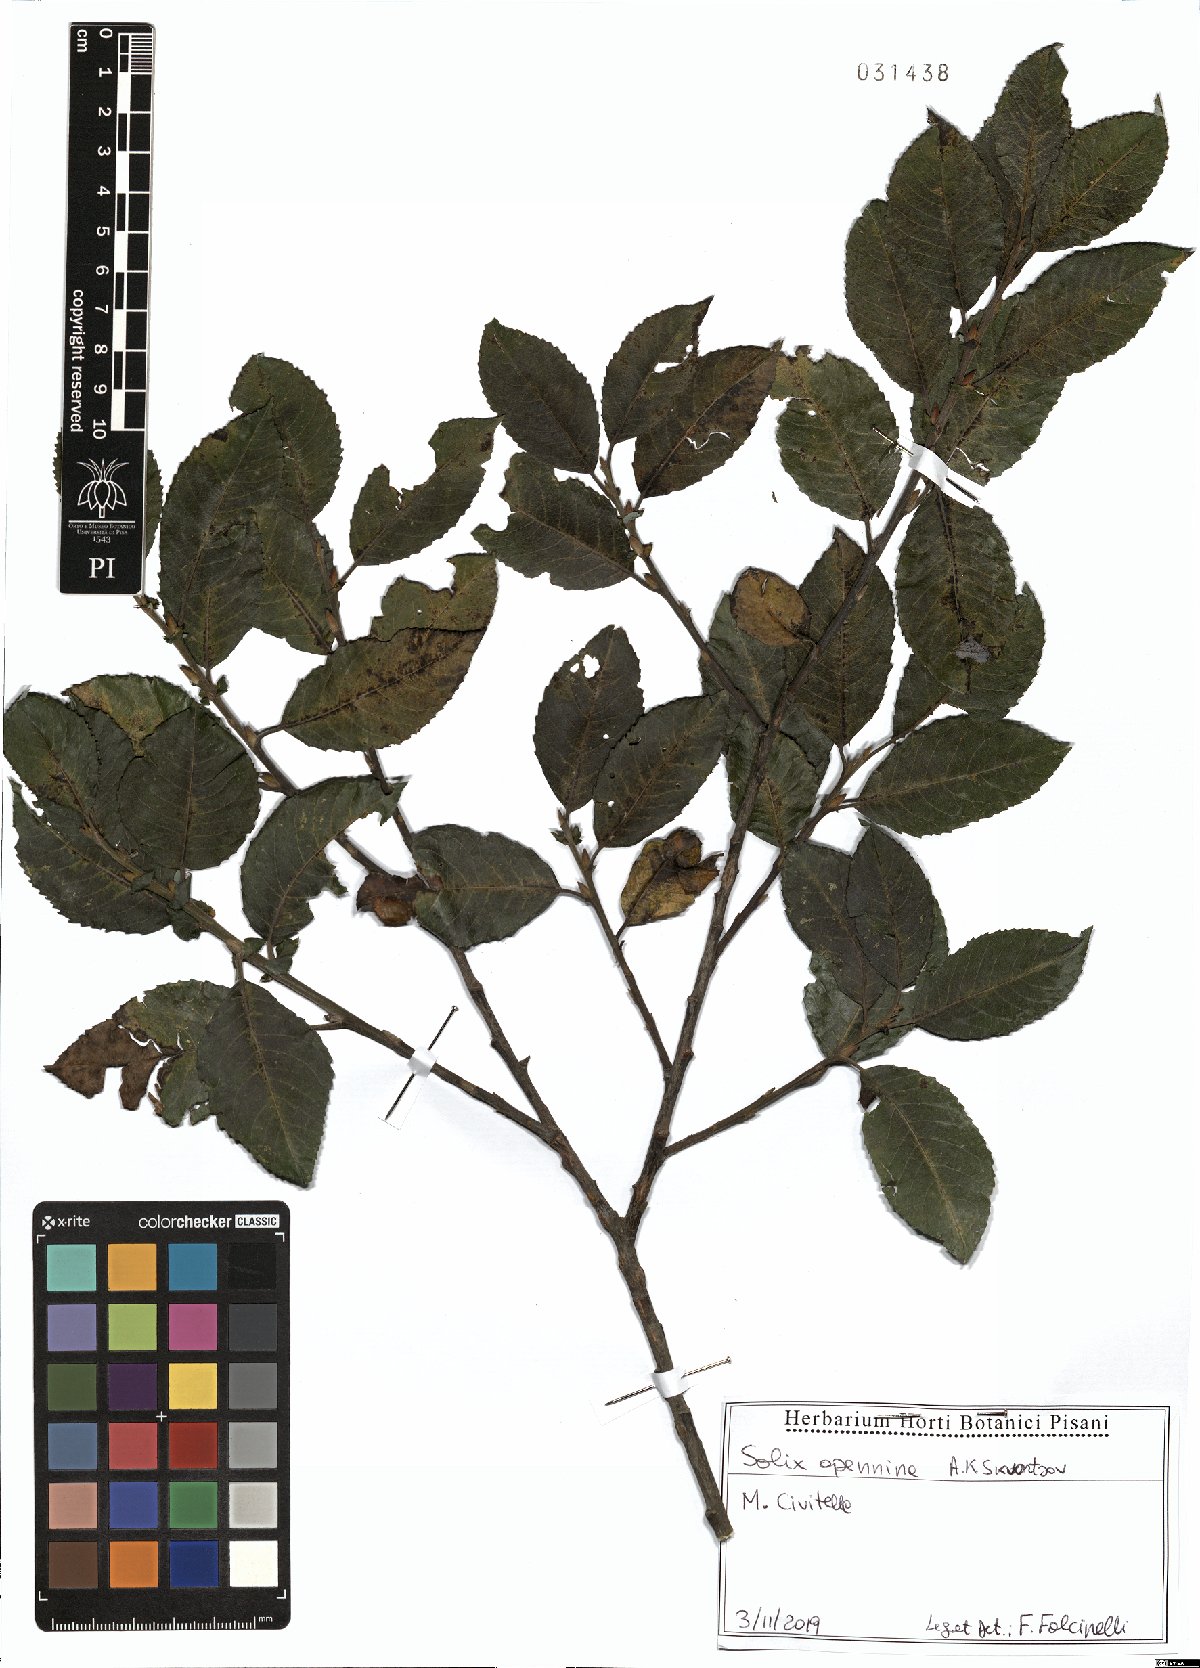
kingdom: Plantae
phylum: Tracheophyta
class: Magnoliopsida
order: Malpighiales
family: Salicaceae
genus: Salix
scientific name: Salix apennina
